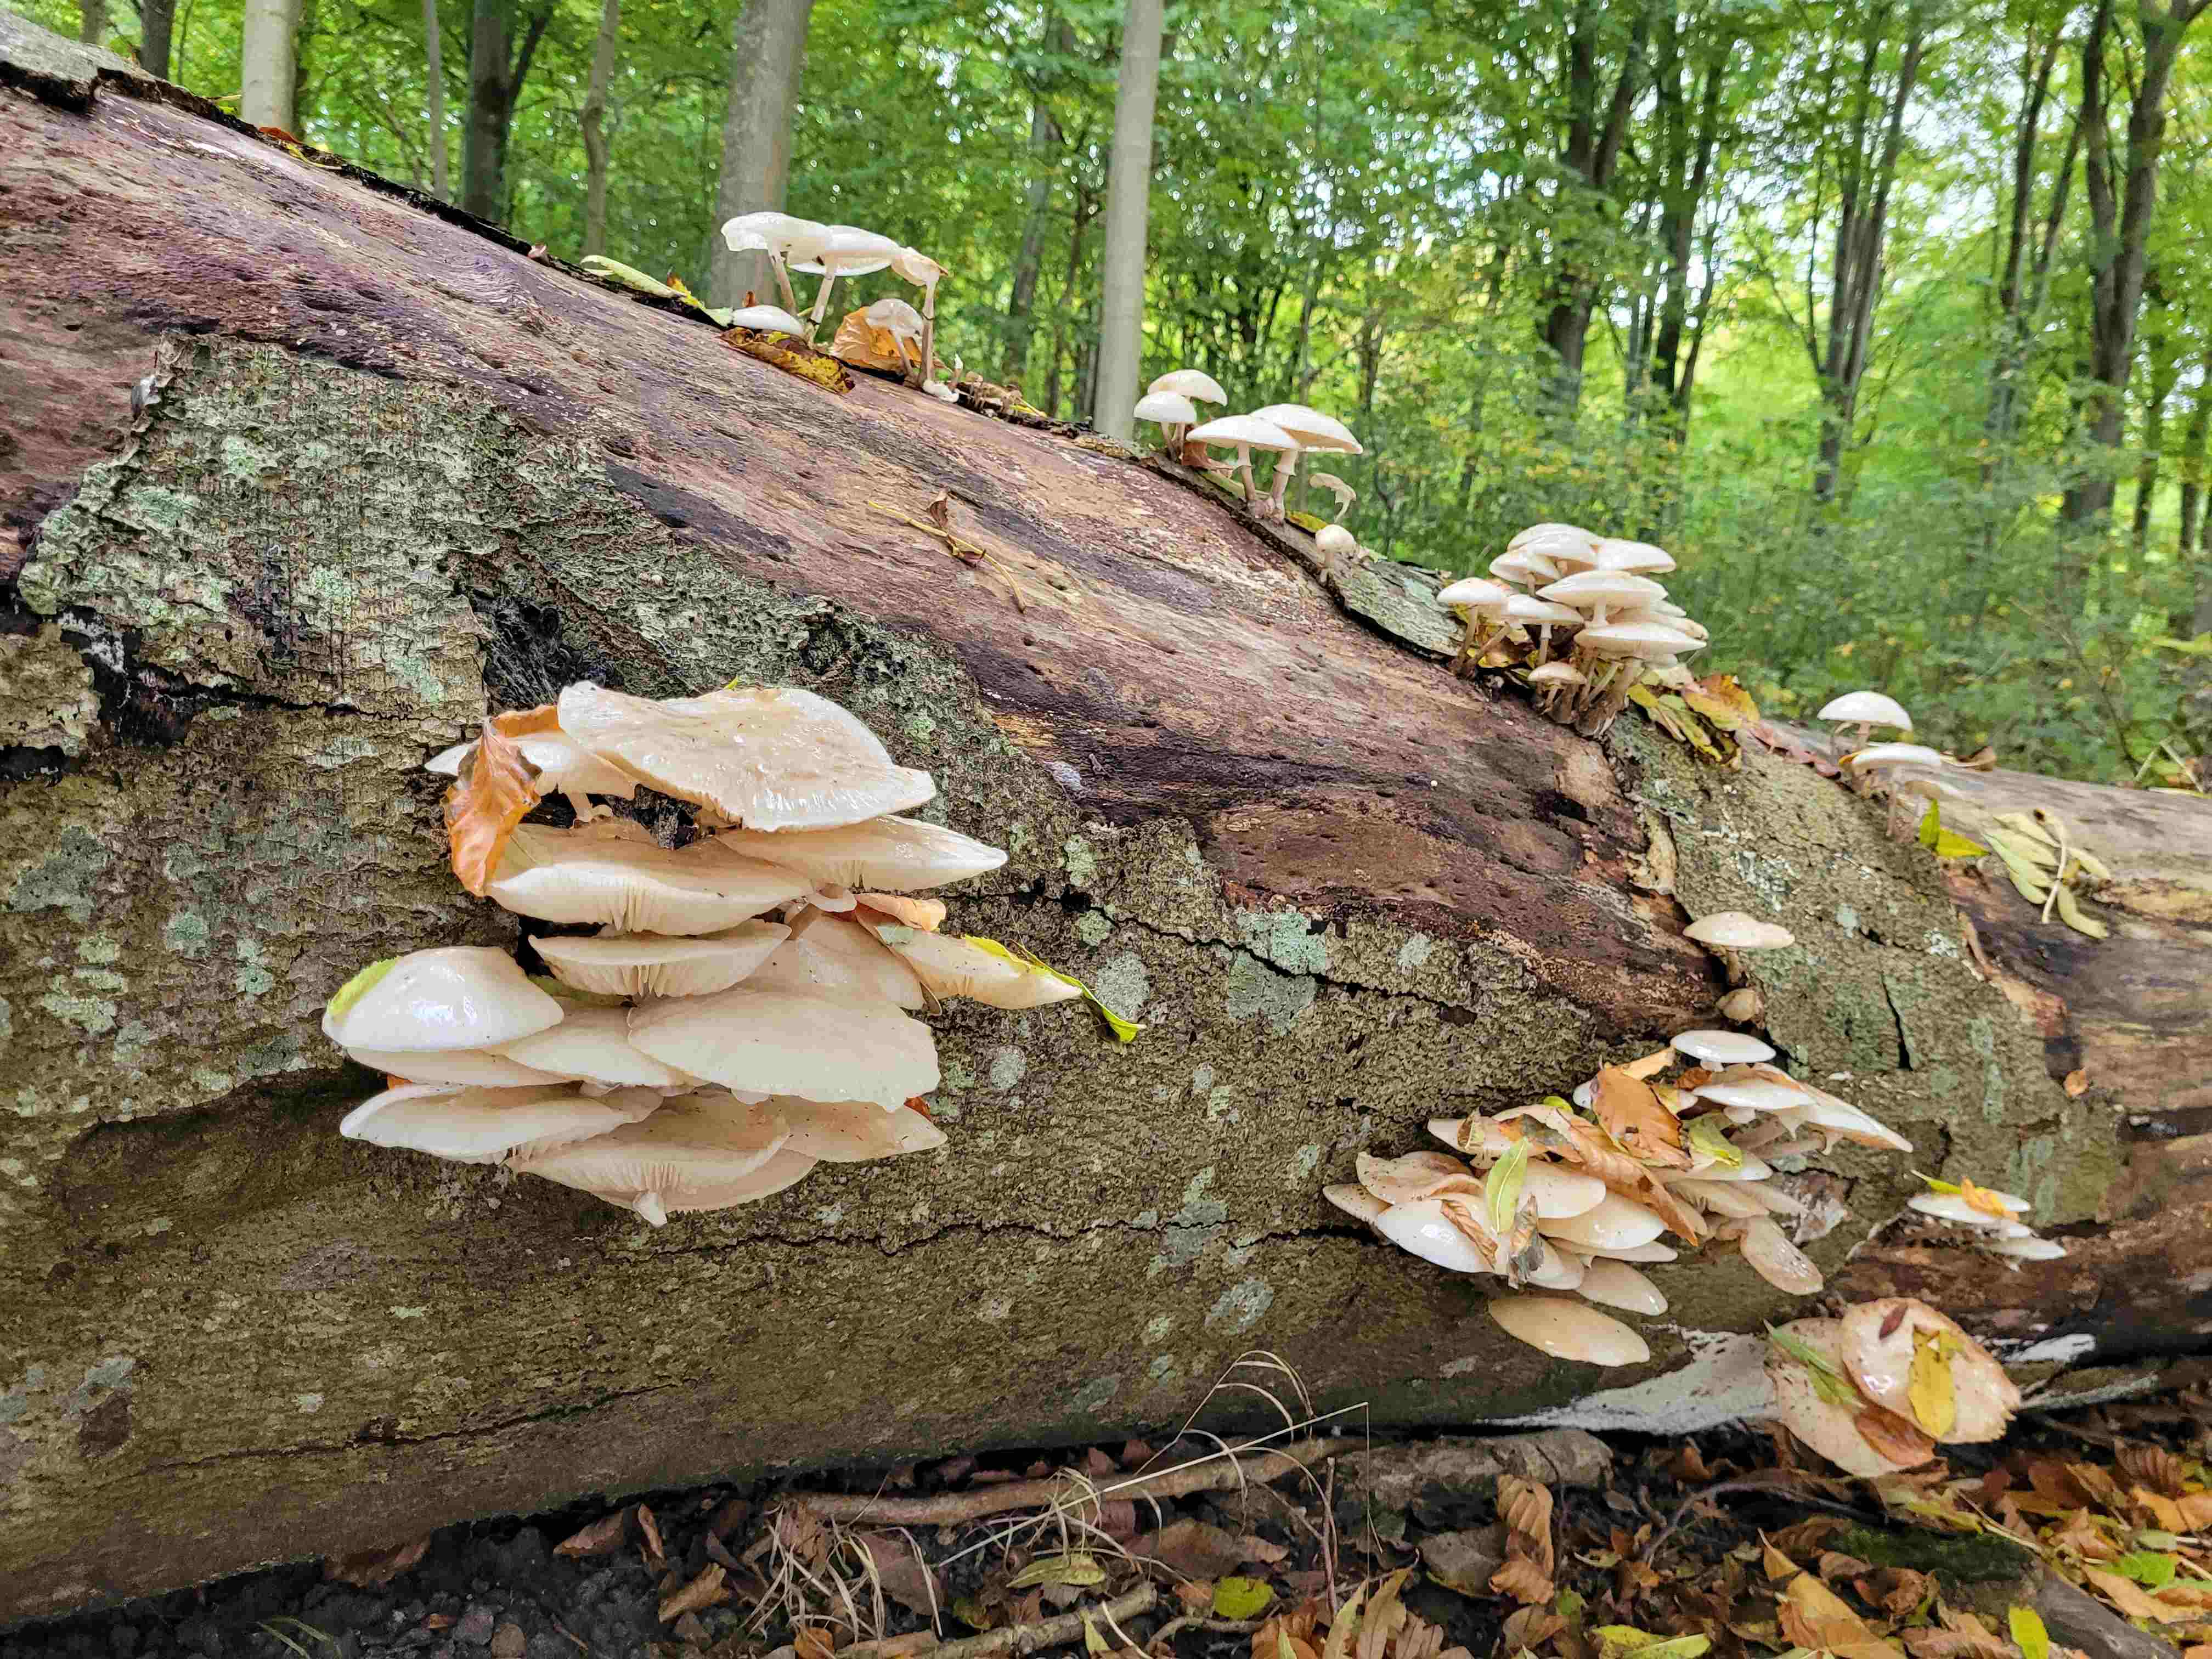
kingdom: Fungi
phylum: Basidiomycota
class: Agaricomycetes
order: Agaricales
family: Physalacriaceae
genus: Mucidula
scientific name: Mucidula mucida
